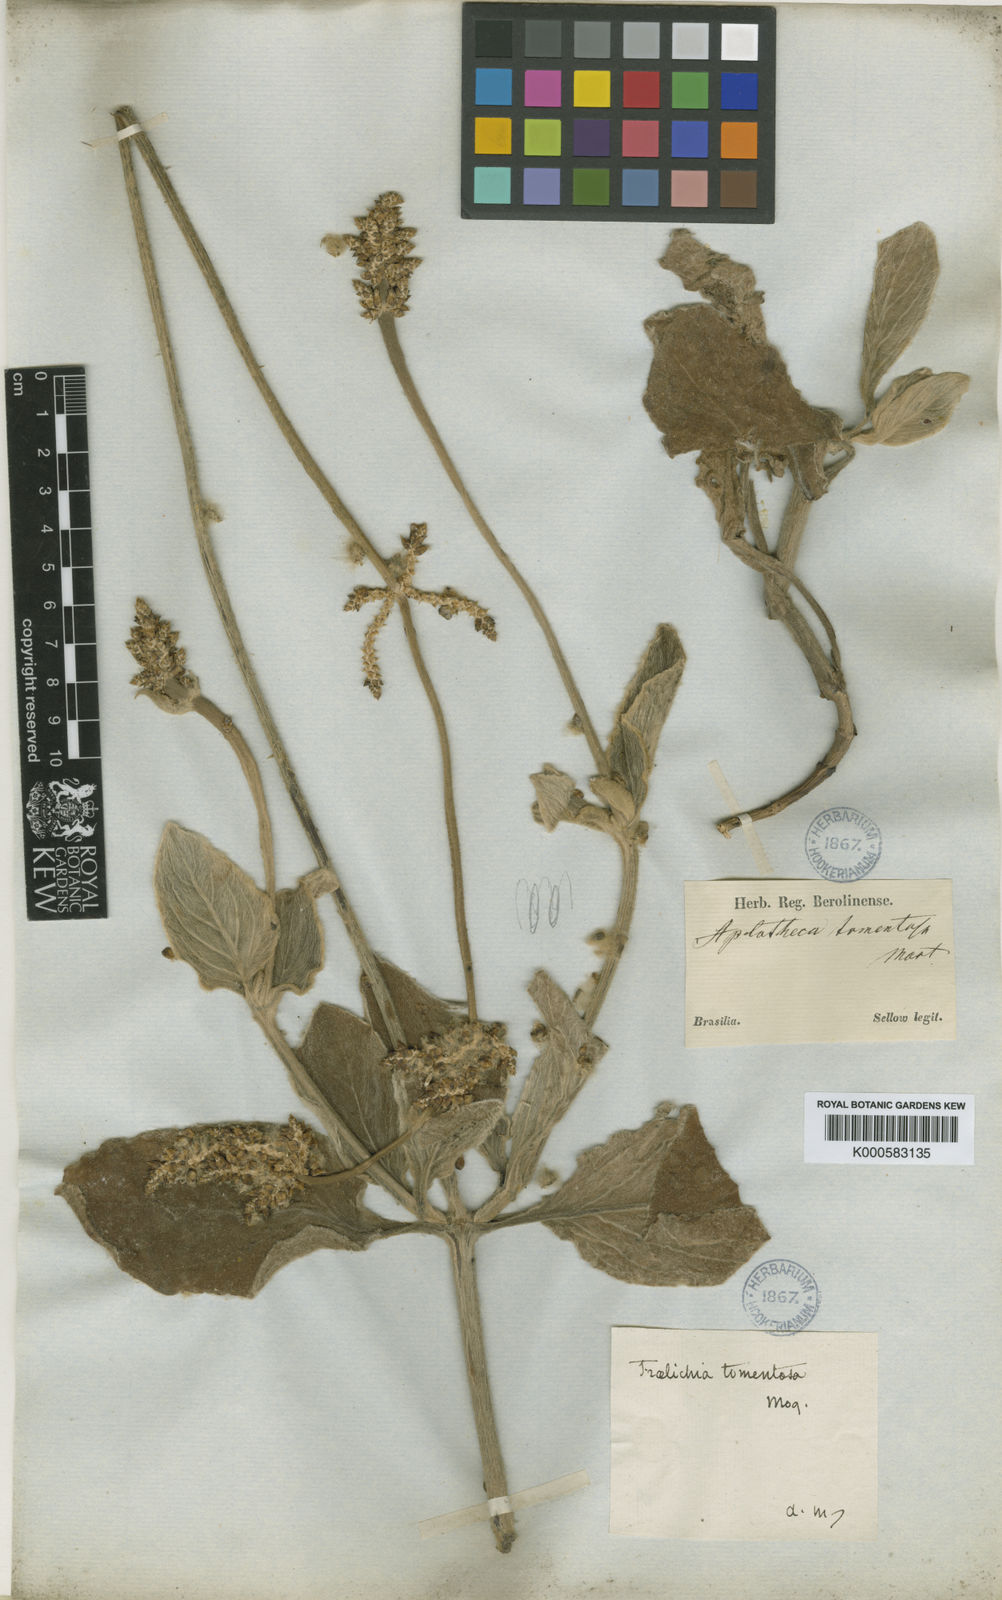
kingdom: Plantae
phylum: Tracheophyta
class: Magnoliopsida
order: Caryophyllales
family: Amaranthaceae
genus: Froelichia
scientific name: Froelichia tomentosa
